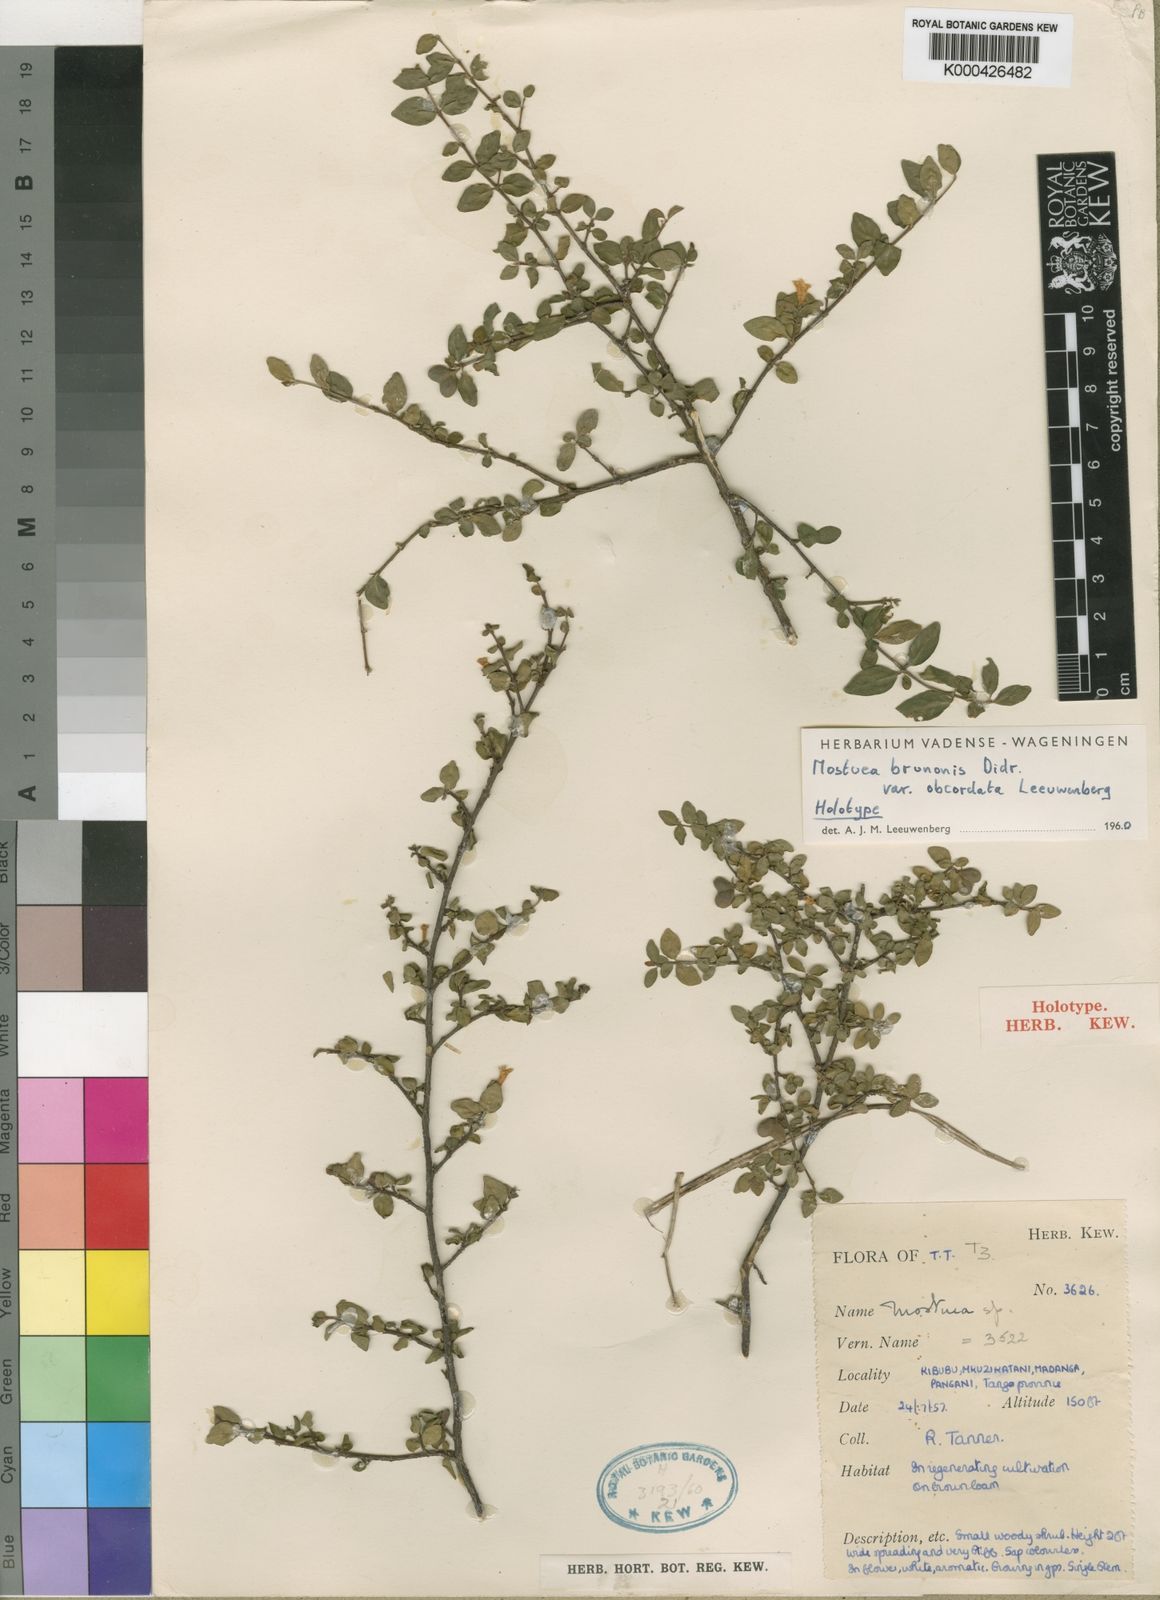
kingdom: Plantae
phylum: Tracheophyta
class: Magnoliopsida
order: Gentianales
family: Gelsemiaceae
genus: Mostuea
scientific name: Mostuea brunonis
